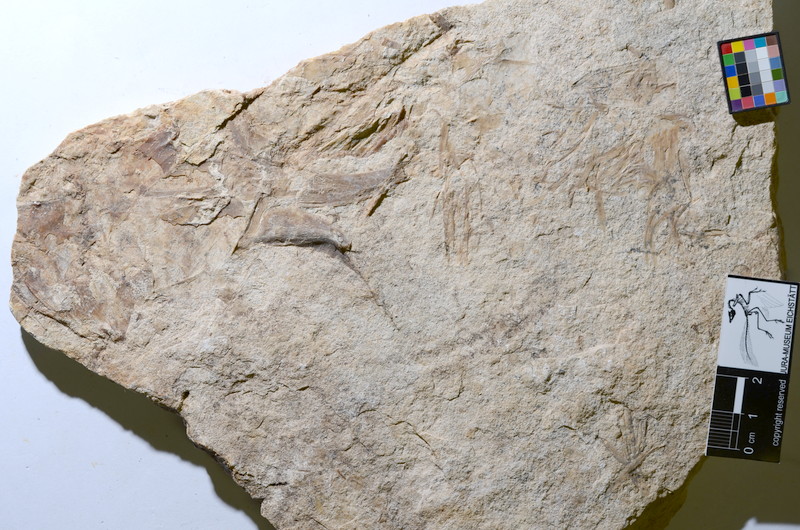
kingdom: Animalia
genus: Piscis
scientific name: Piscis
